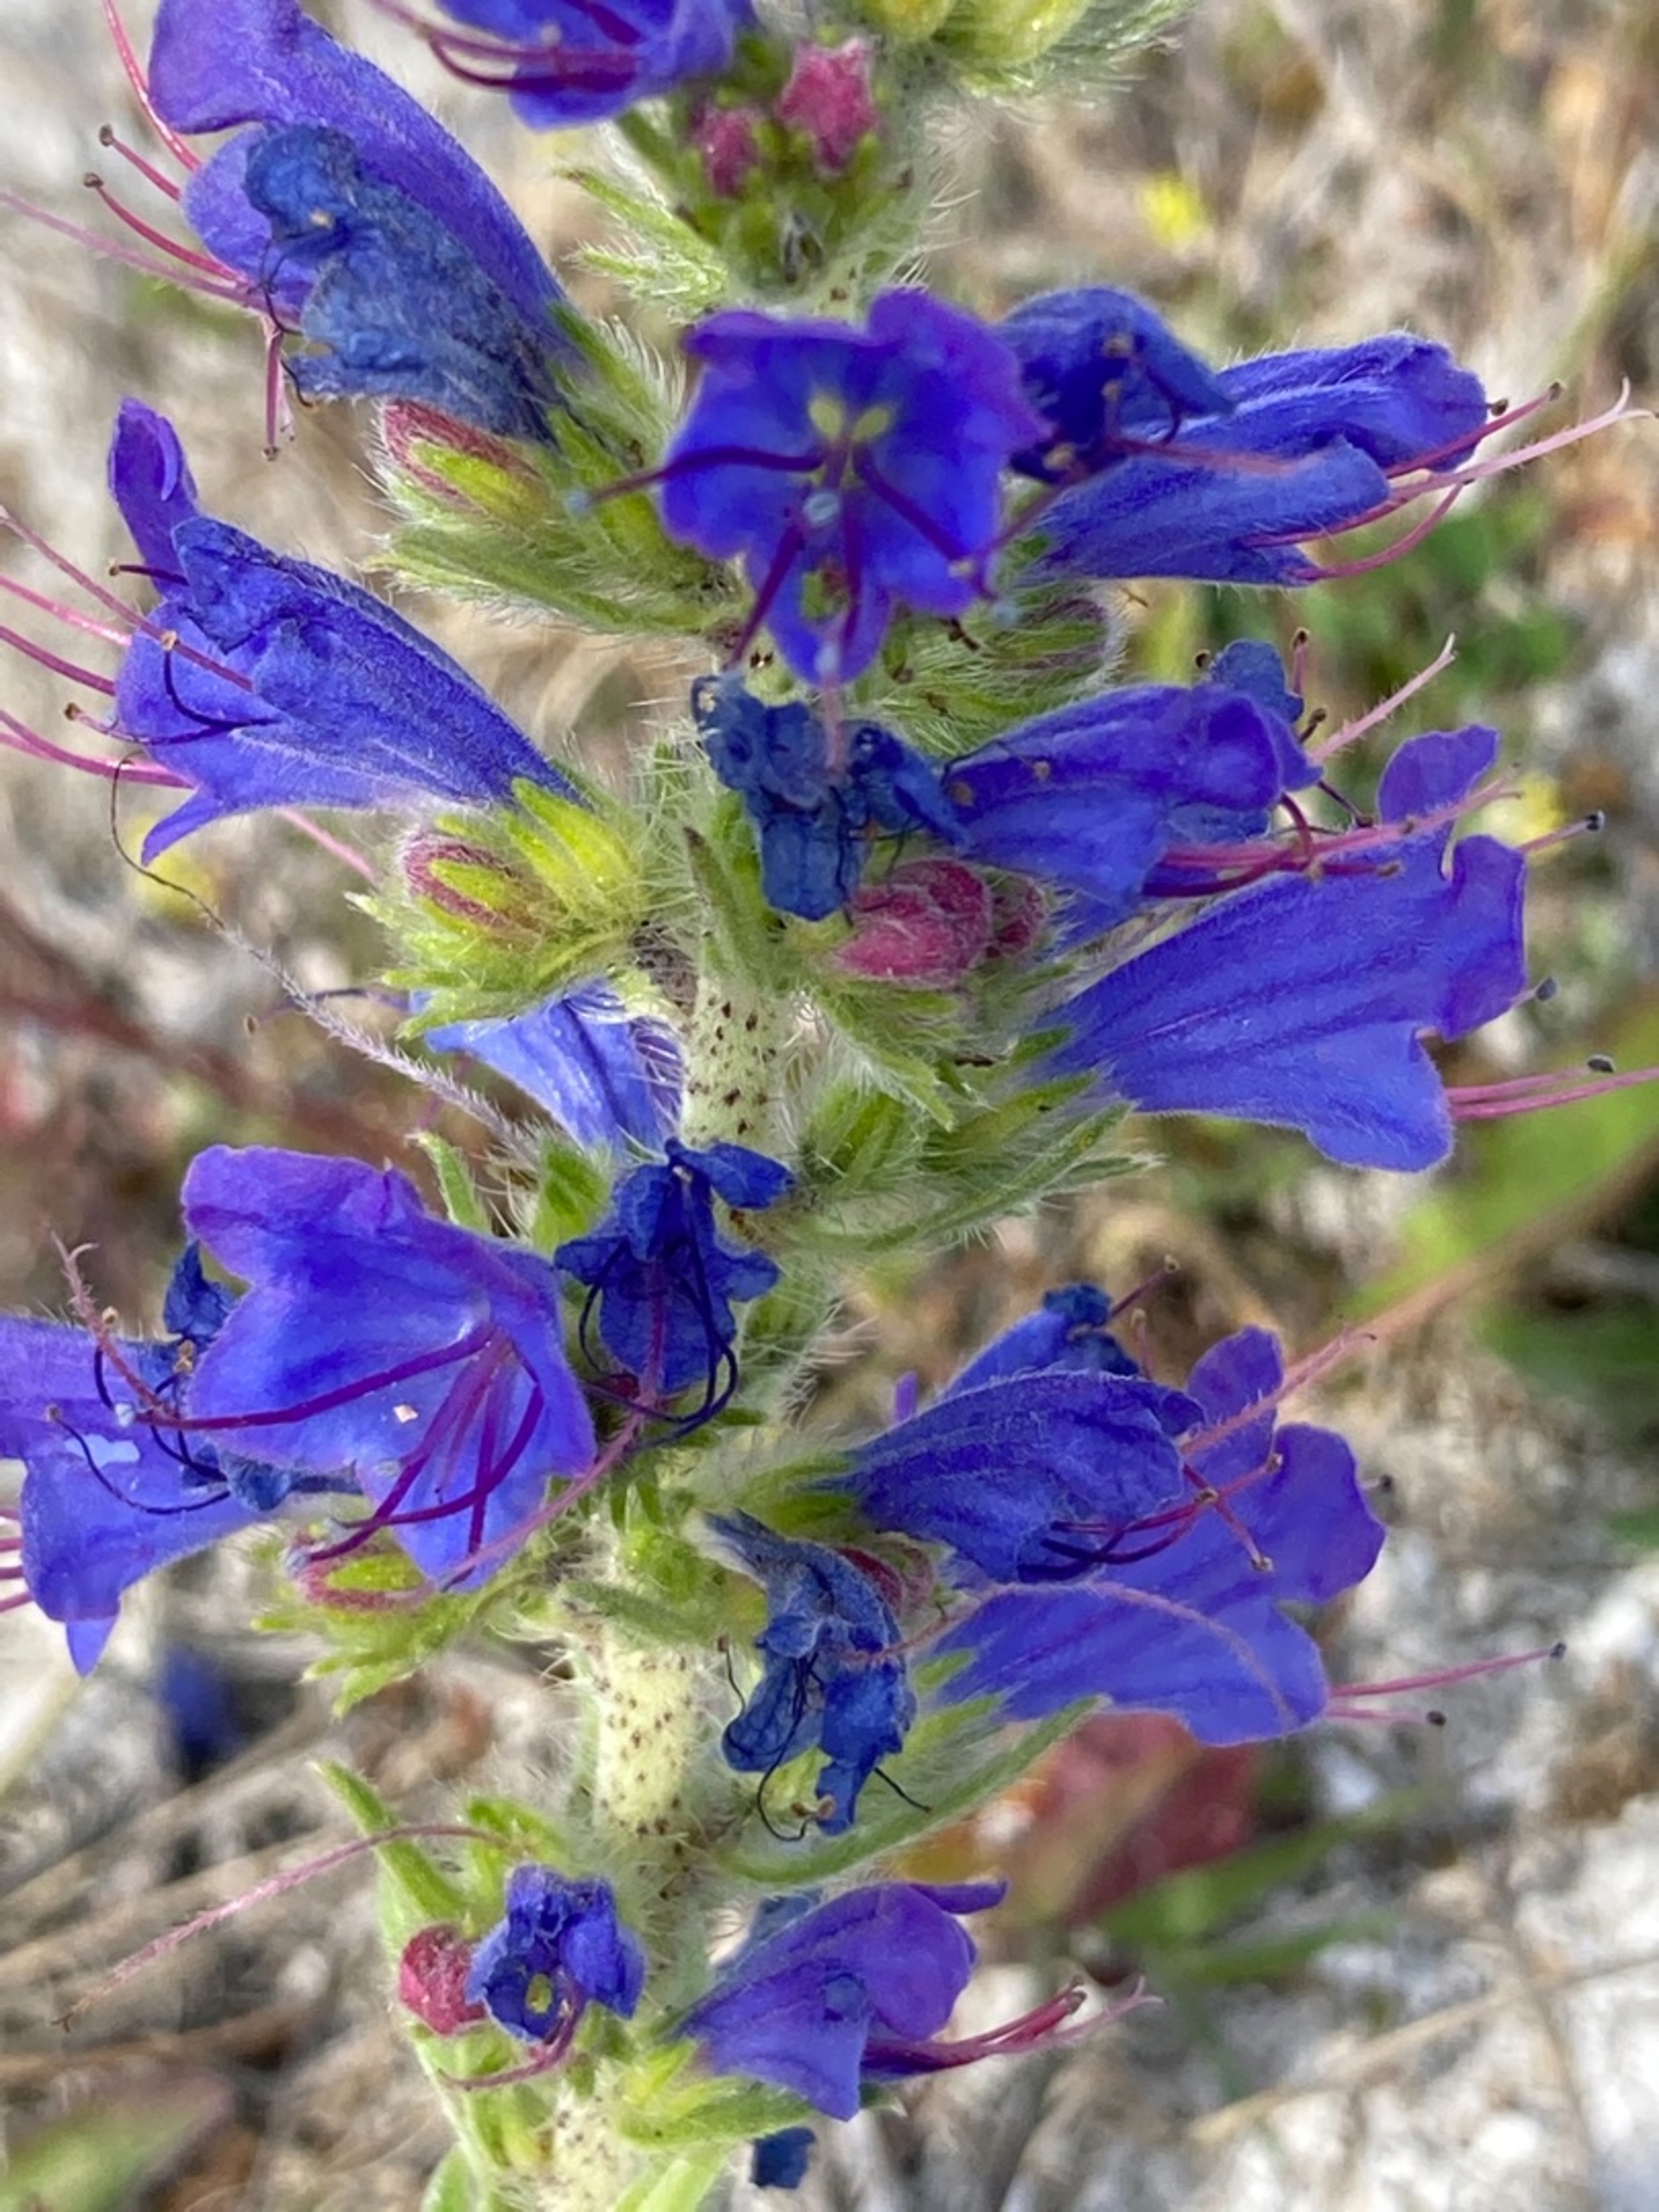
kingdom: Plantae
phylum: Tracheophyta
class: Magnoliopsida
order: Boraginales
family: Boraginaceae
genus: Echium
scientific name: Echium vulgare
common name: Slangehoved
